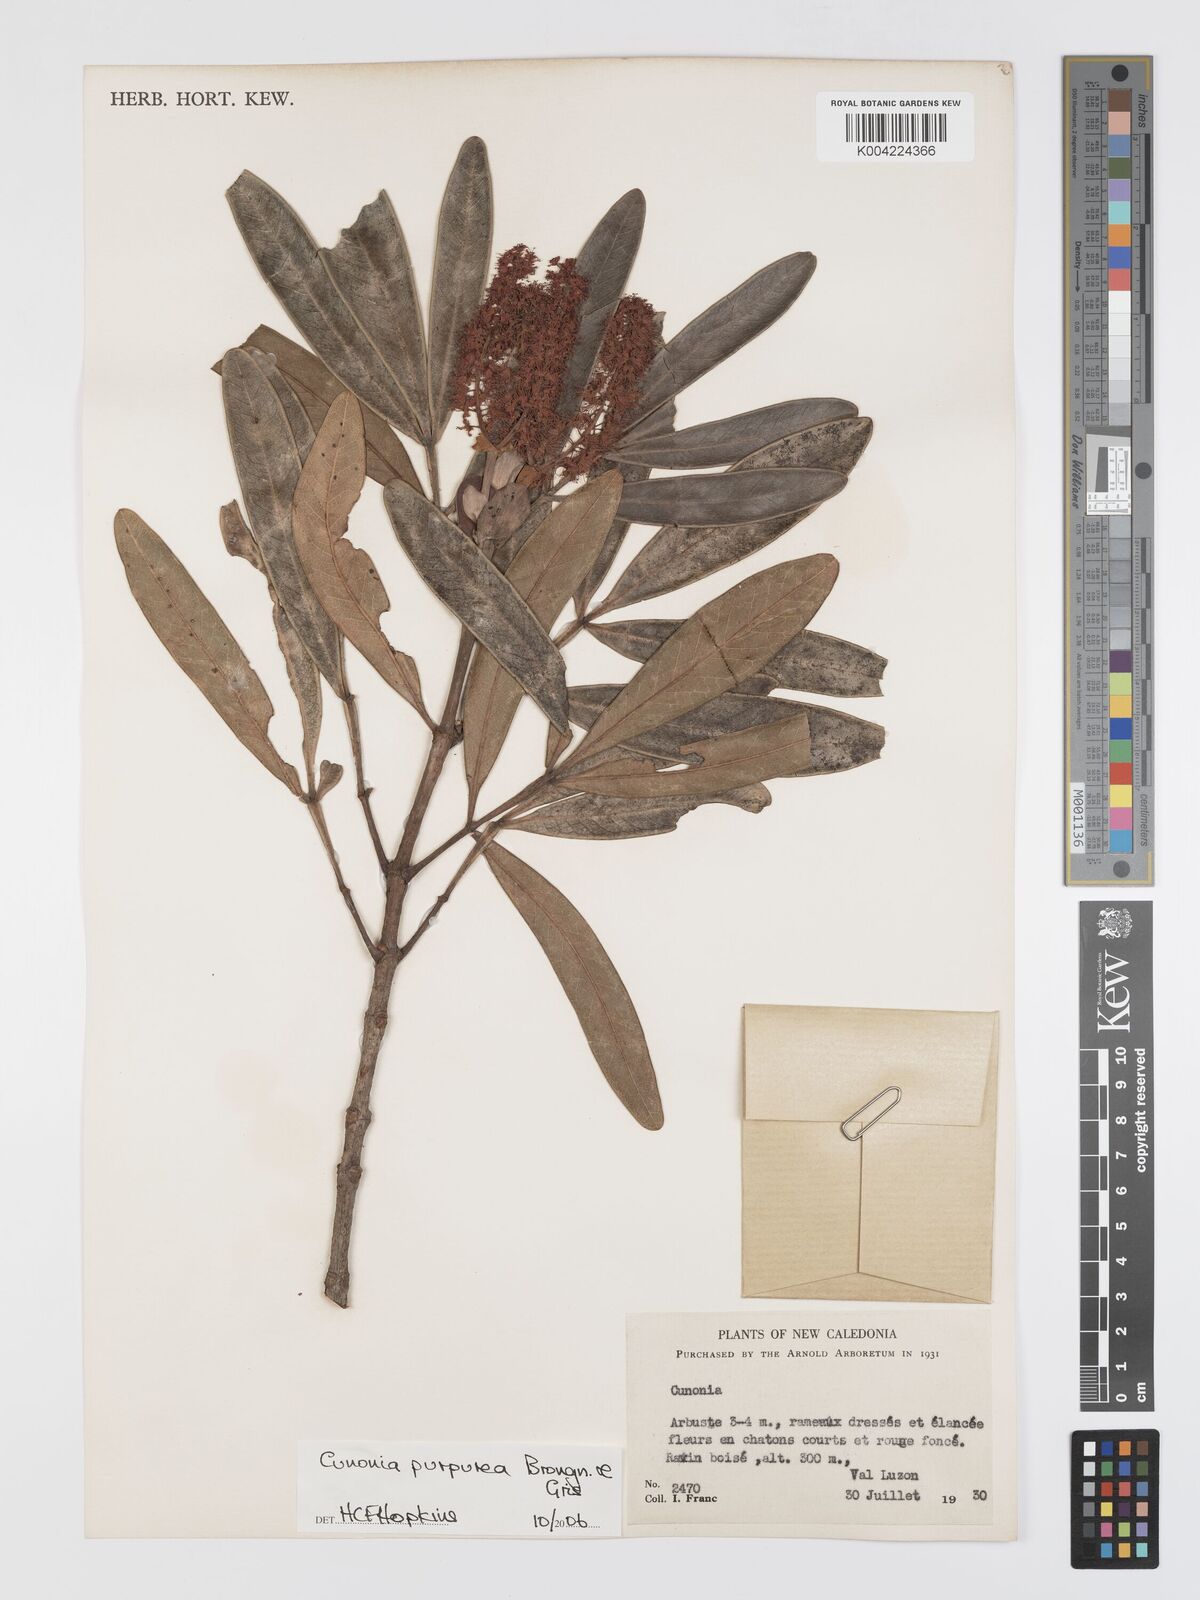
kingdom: Plantae
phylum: Tracheophyta
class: Magnoliopsida
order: Oxalidales
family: Cunoniaceae
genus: Cunonia
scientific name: Cunonia purpurea
